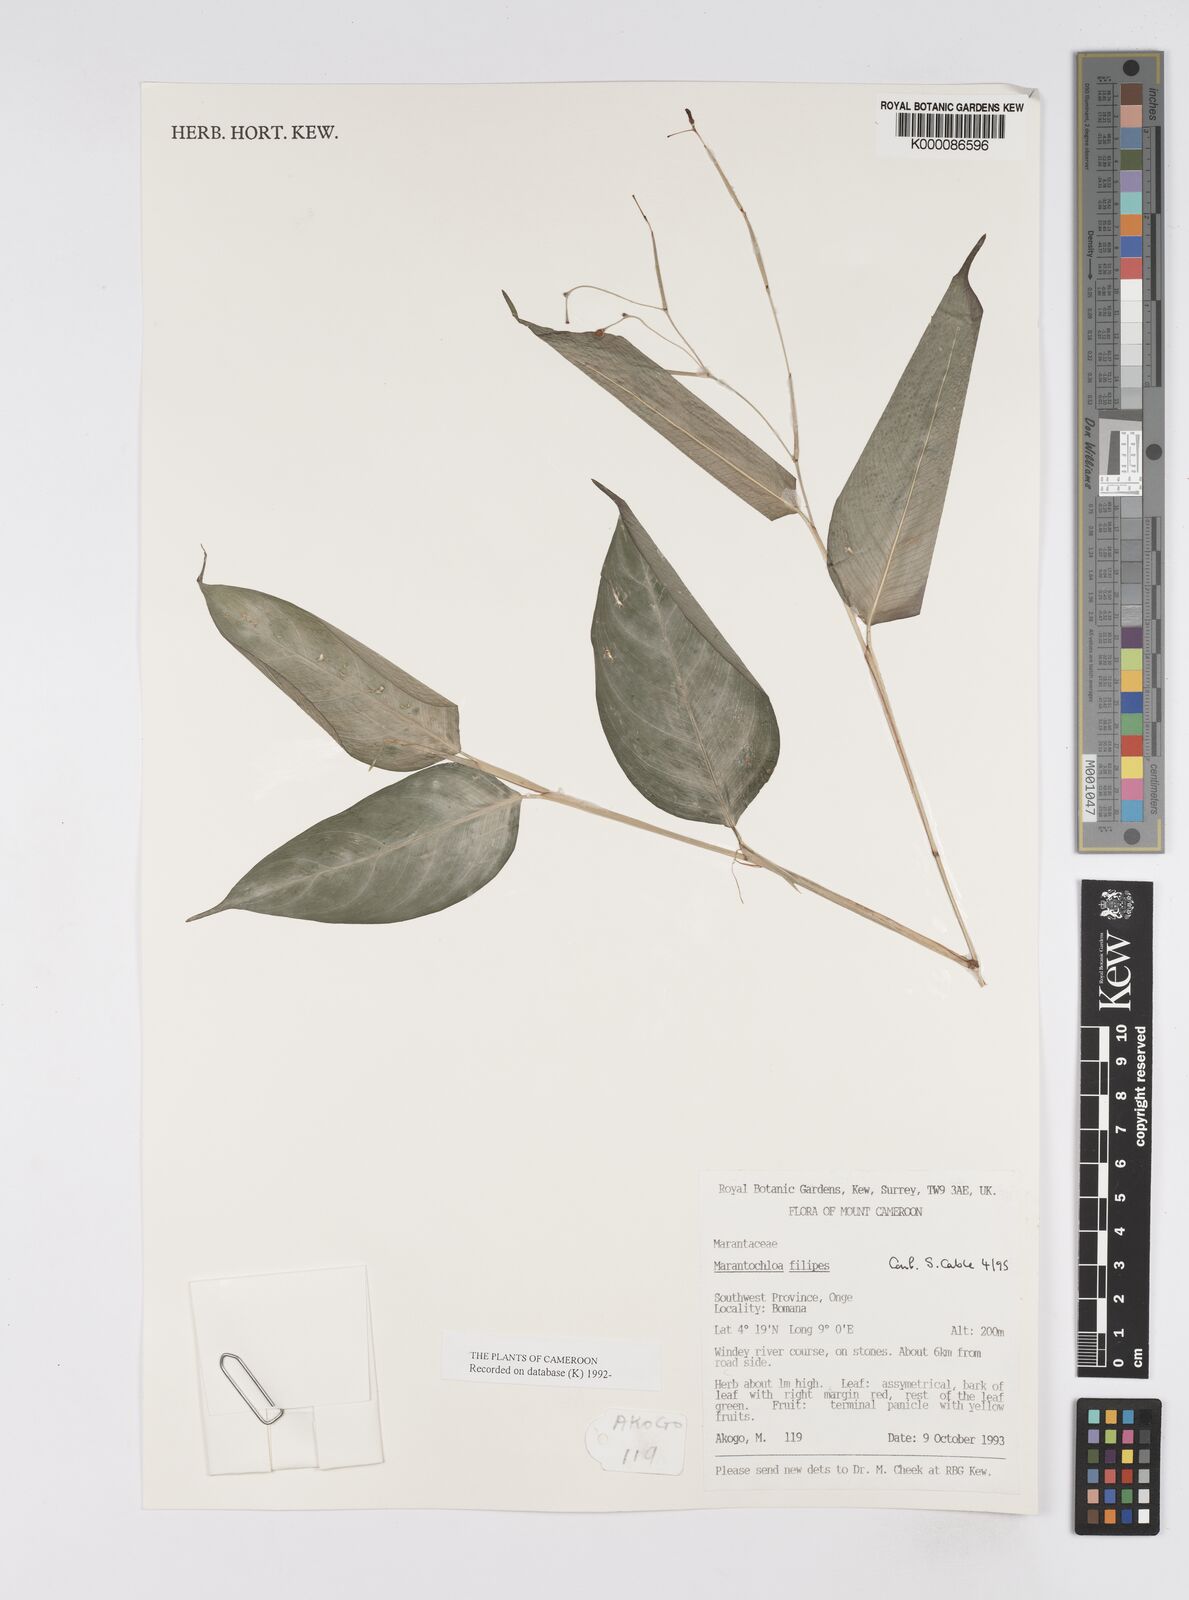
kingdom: Plantae
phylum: Tracheophyta
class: Liliopsida
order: Zingiberales
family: Marantaceae
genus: Marantochloa
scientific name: Marantochloa filipes
